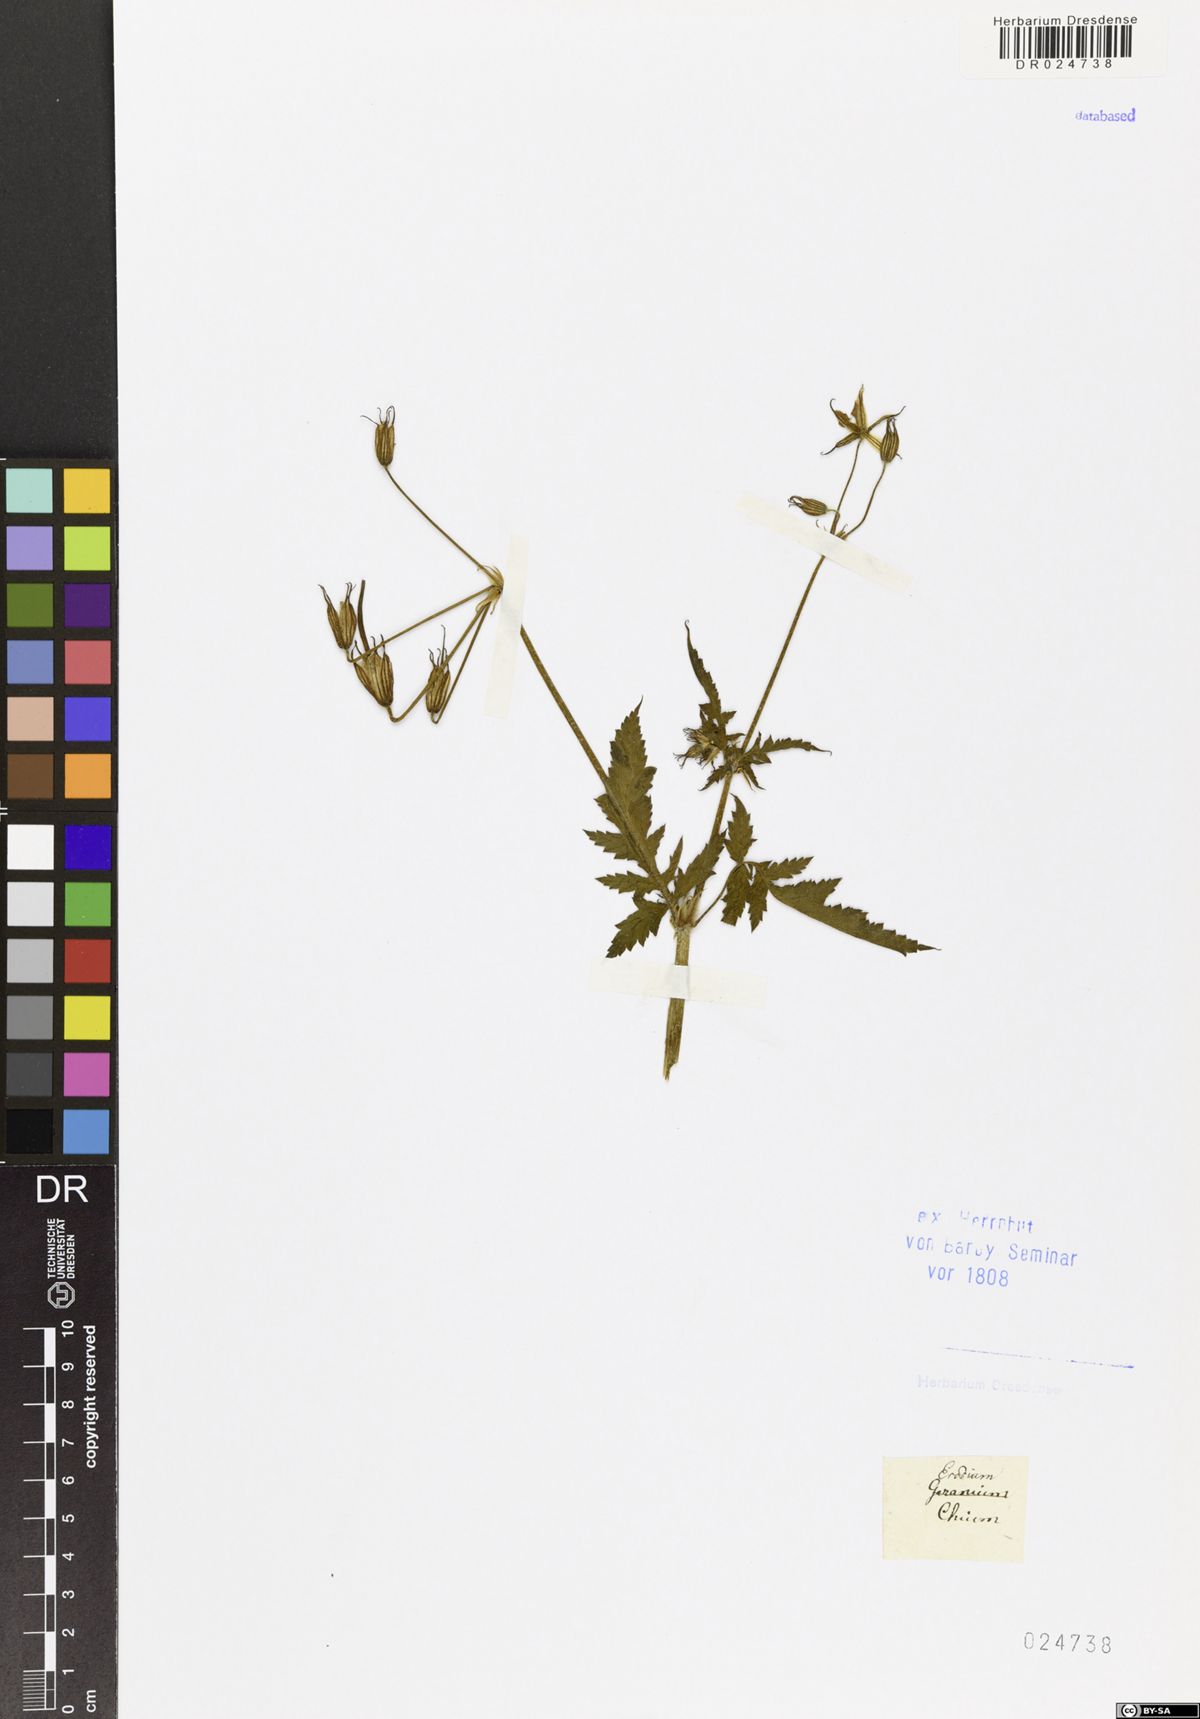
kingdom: Plantae
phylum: Tracheophyta
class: Magnoliopsida
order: Geraniales
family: Geraniaceae
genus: Erodium
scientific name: Erodium chium
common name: Three-lobed stork's-bill
